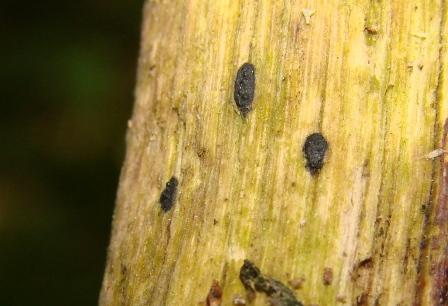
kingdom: Fungi
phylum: Ascomycota
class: Sordariomycetes
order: Xylariales
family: Xylariaceae
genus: Euepixylon
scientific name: Euepixylon udum
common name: ege-kuldyne
